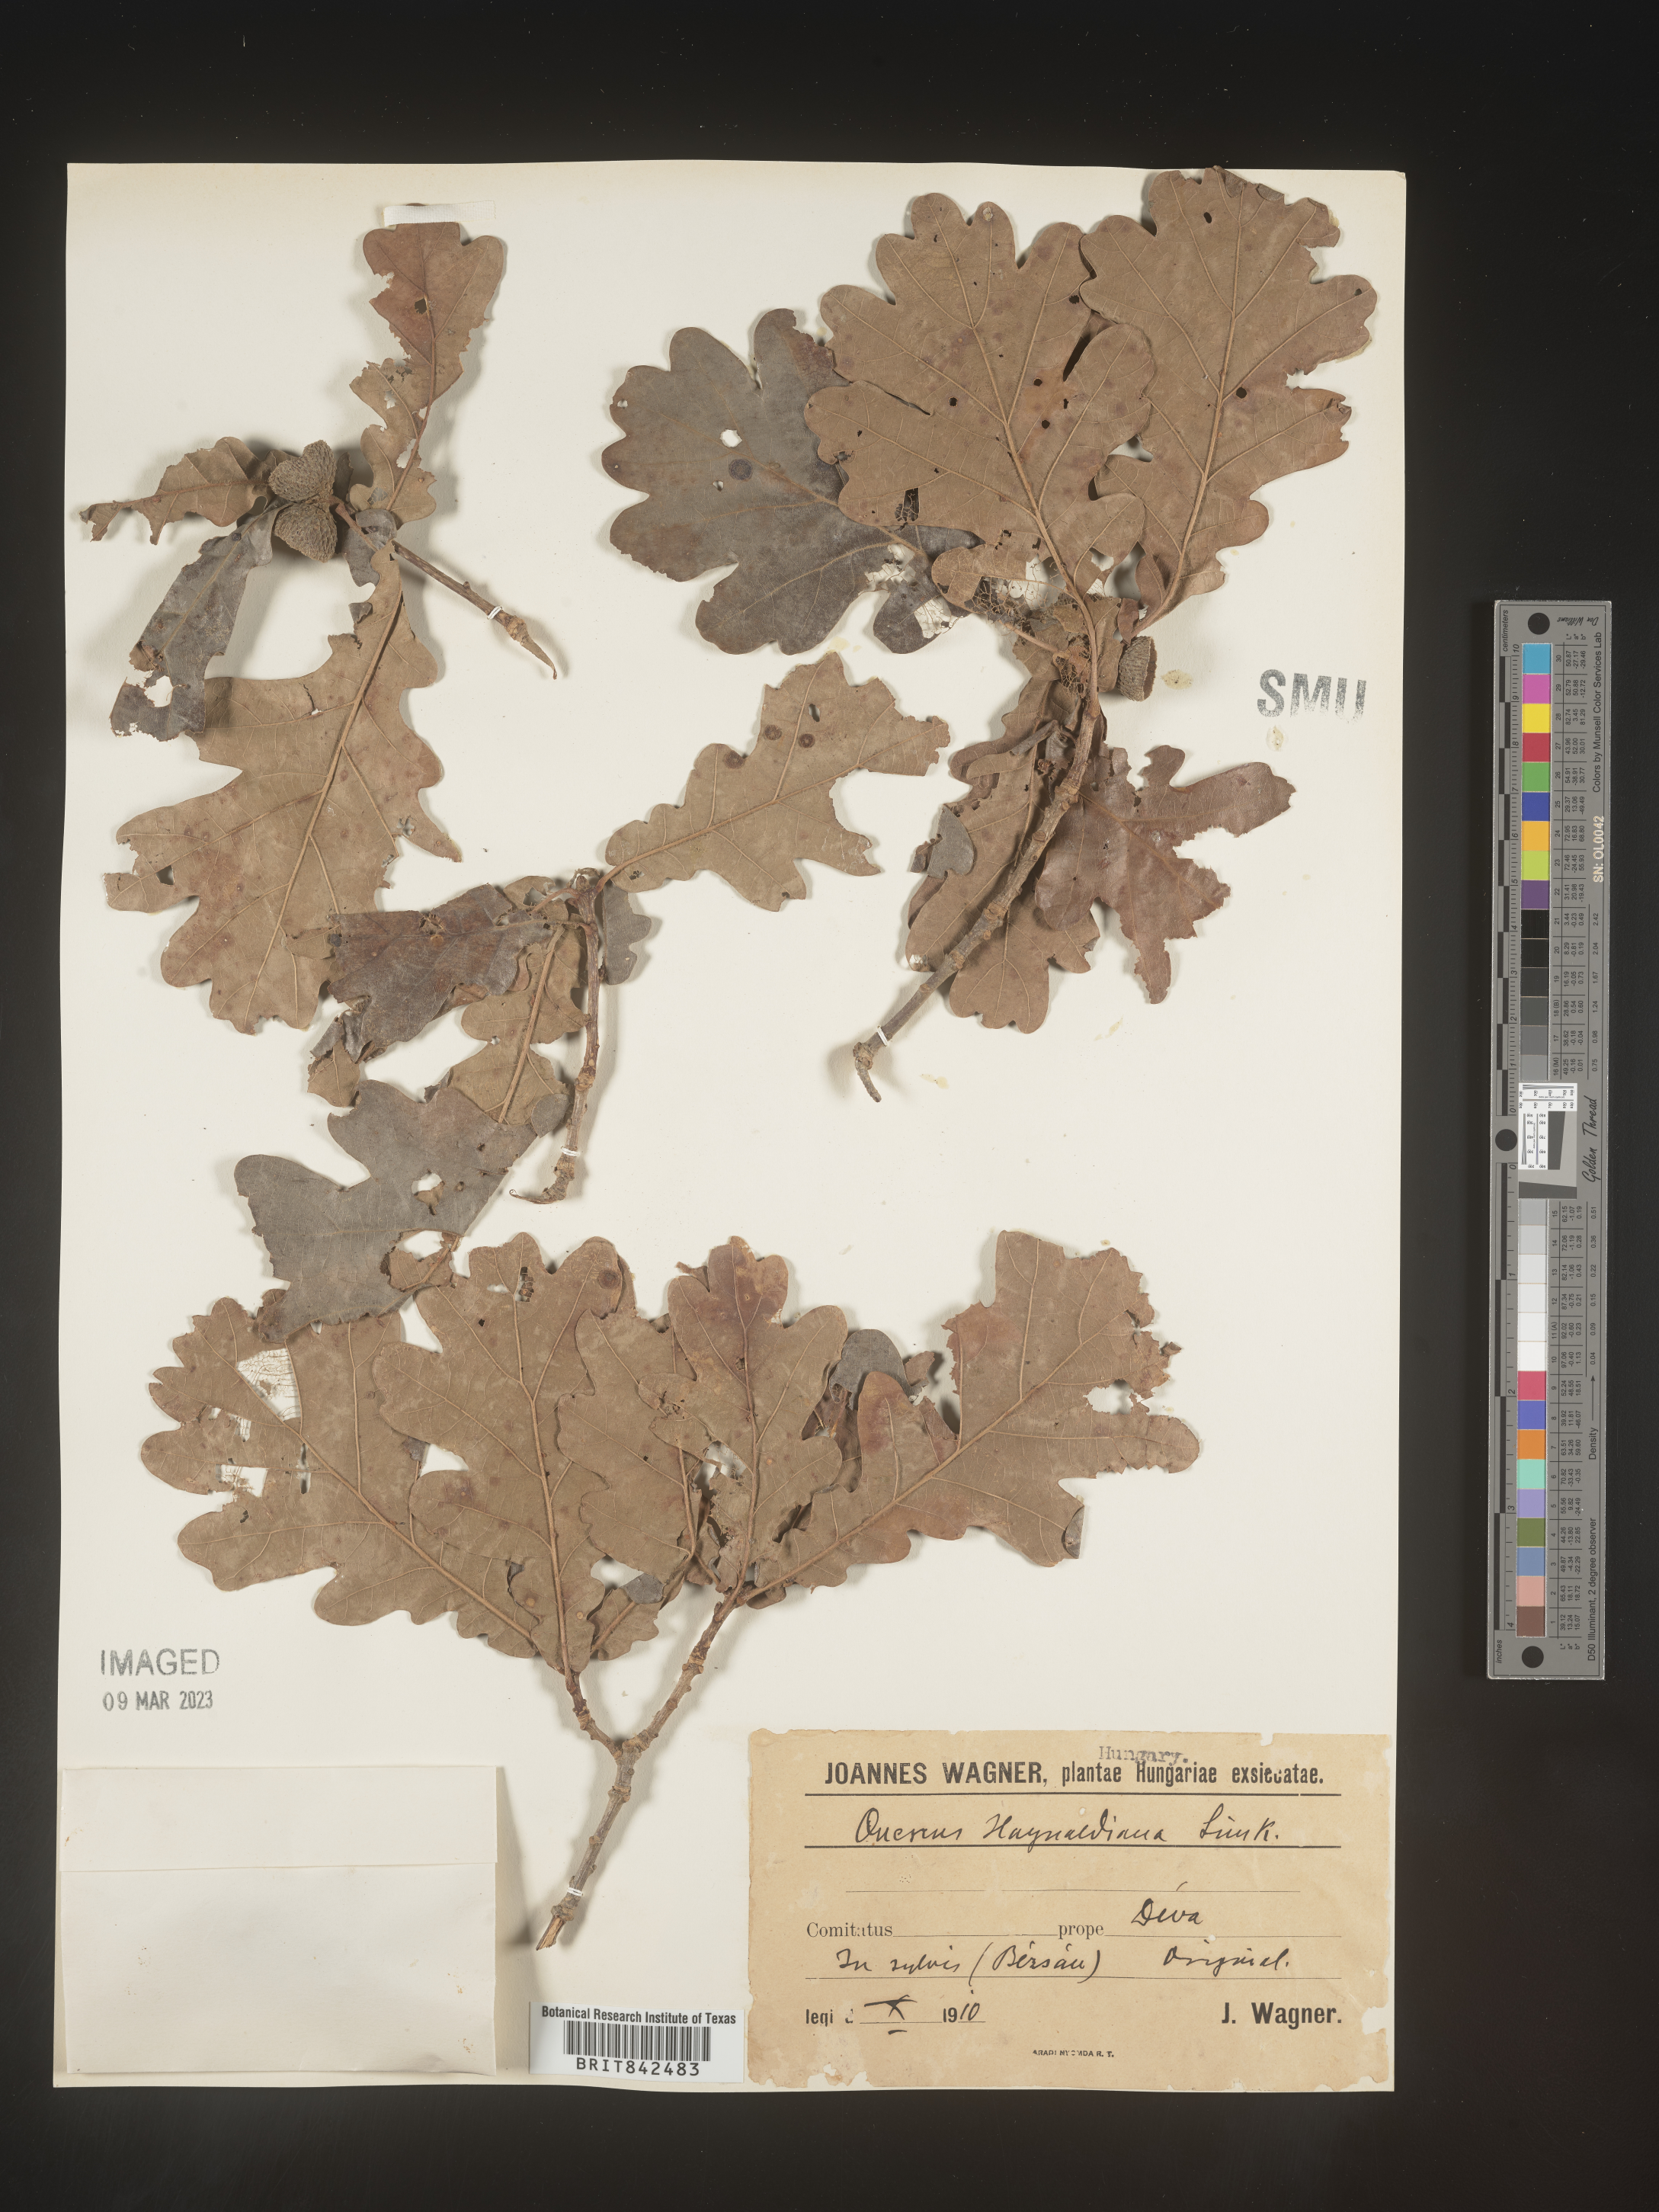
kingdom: Plantae
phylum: Tracheophyta
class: Magnoliopsida
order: Fagales
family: Fagaceae
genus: Quercus
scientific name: Quercus
